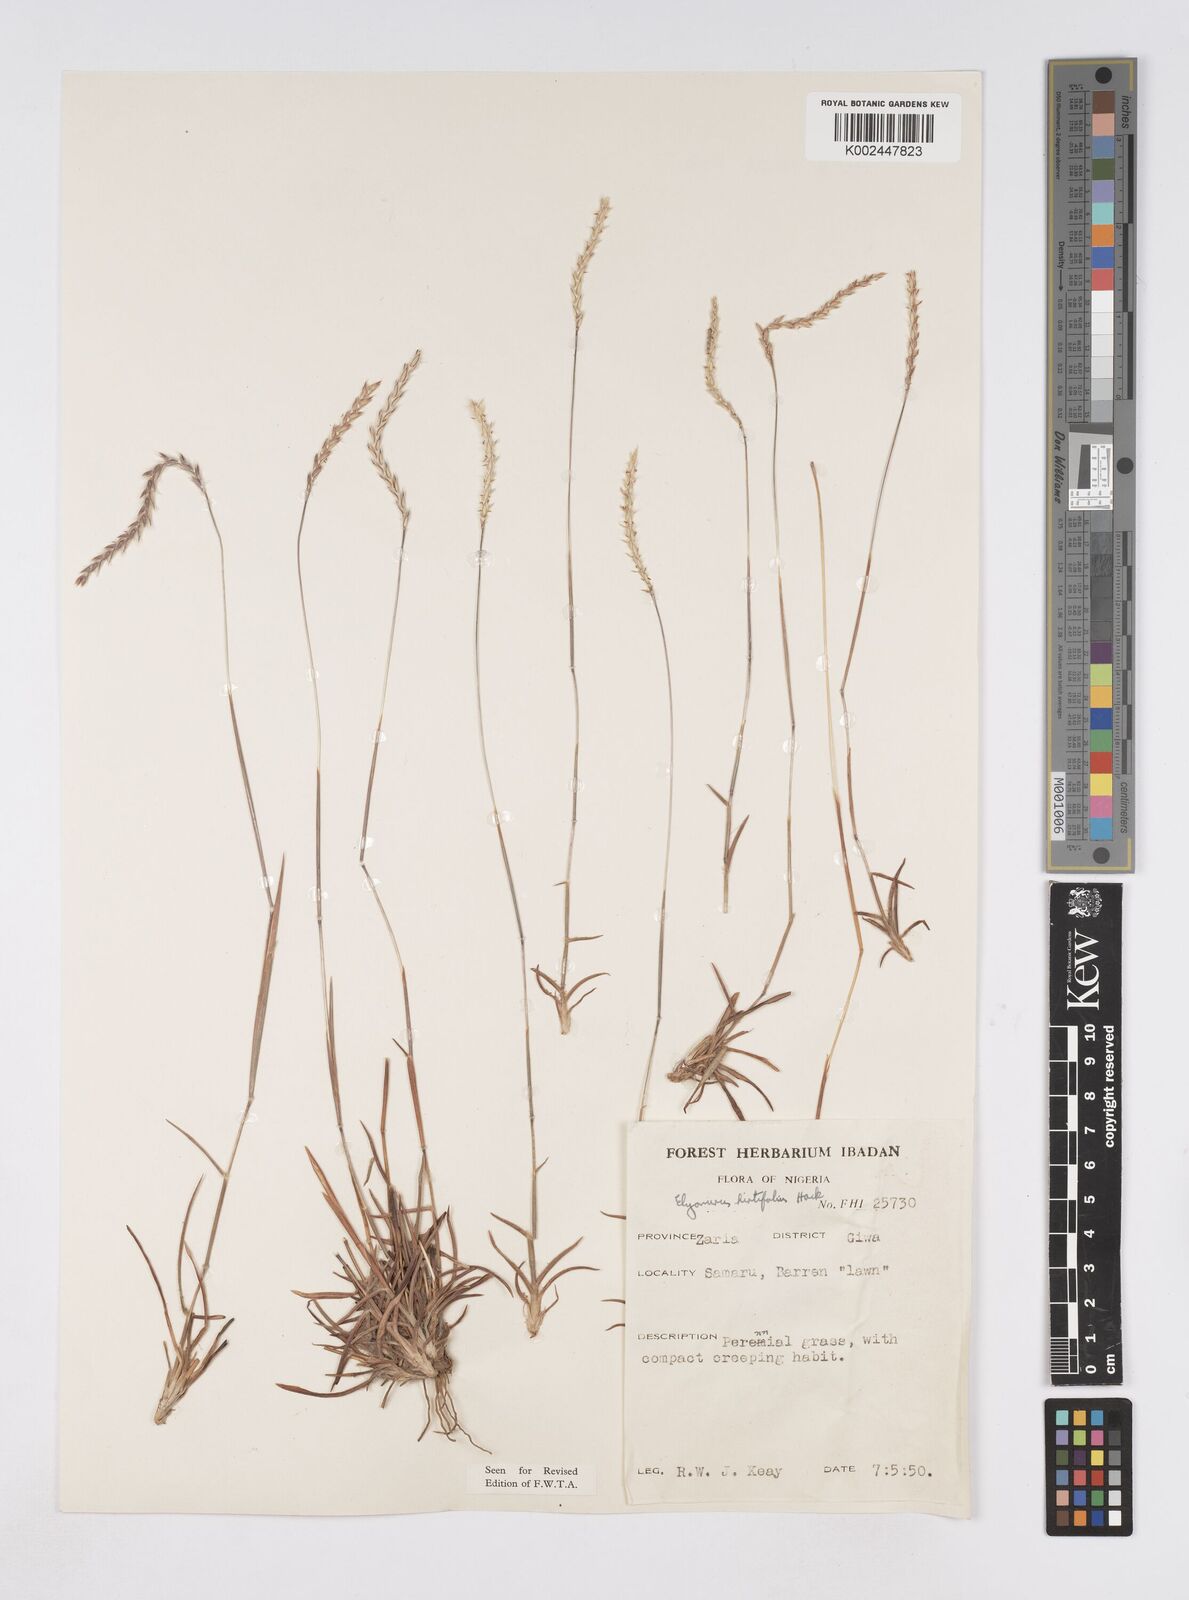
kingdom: Plantae
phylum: Tracheophyta
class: Liliopsida
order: Poales
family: Poaceae
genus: Elionurus
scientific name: Elionurus hirtifolius
